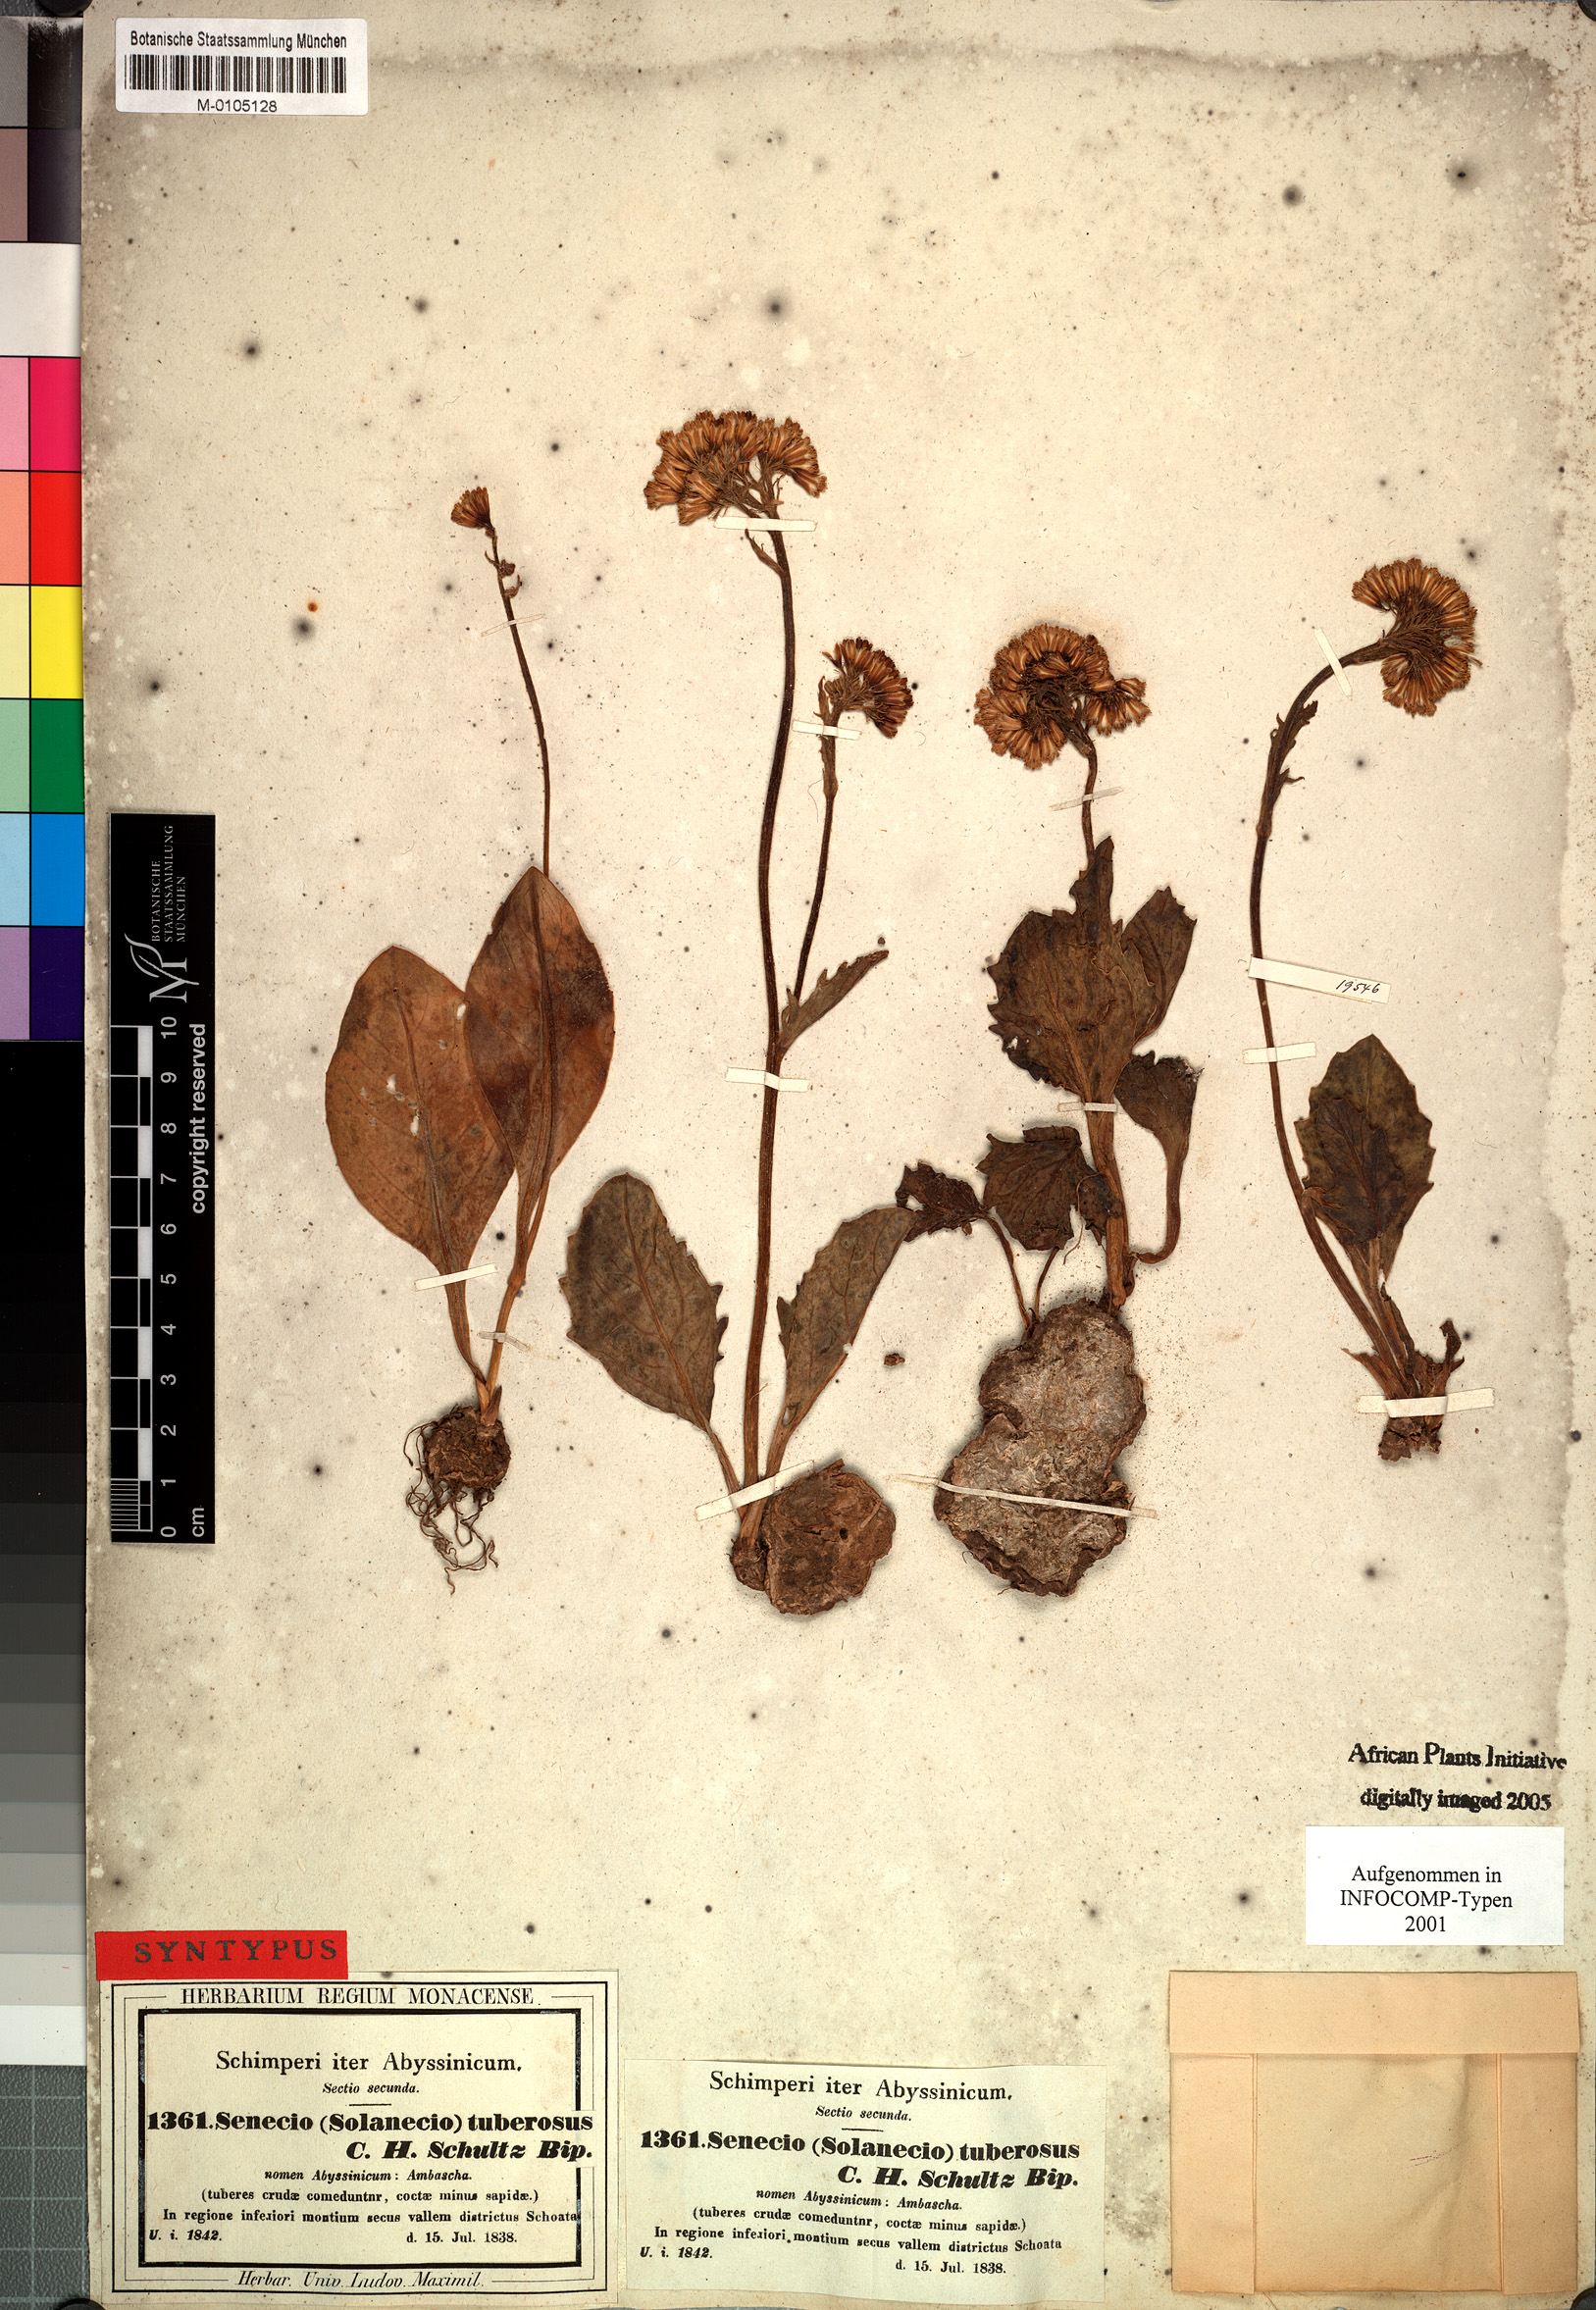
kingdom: Plantae
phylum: Tracheophyta
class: Magnoliopsida
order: Asterales
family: Asteraceae
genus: Solanecio
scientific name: Solanecio tuberosus
